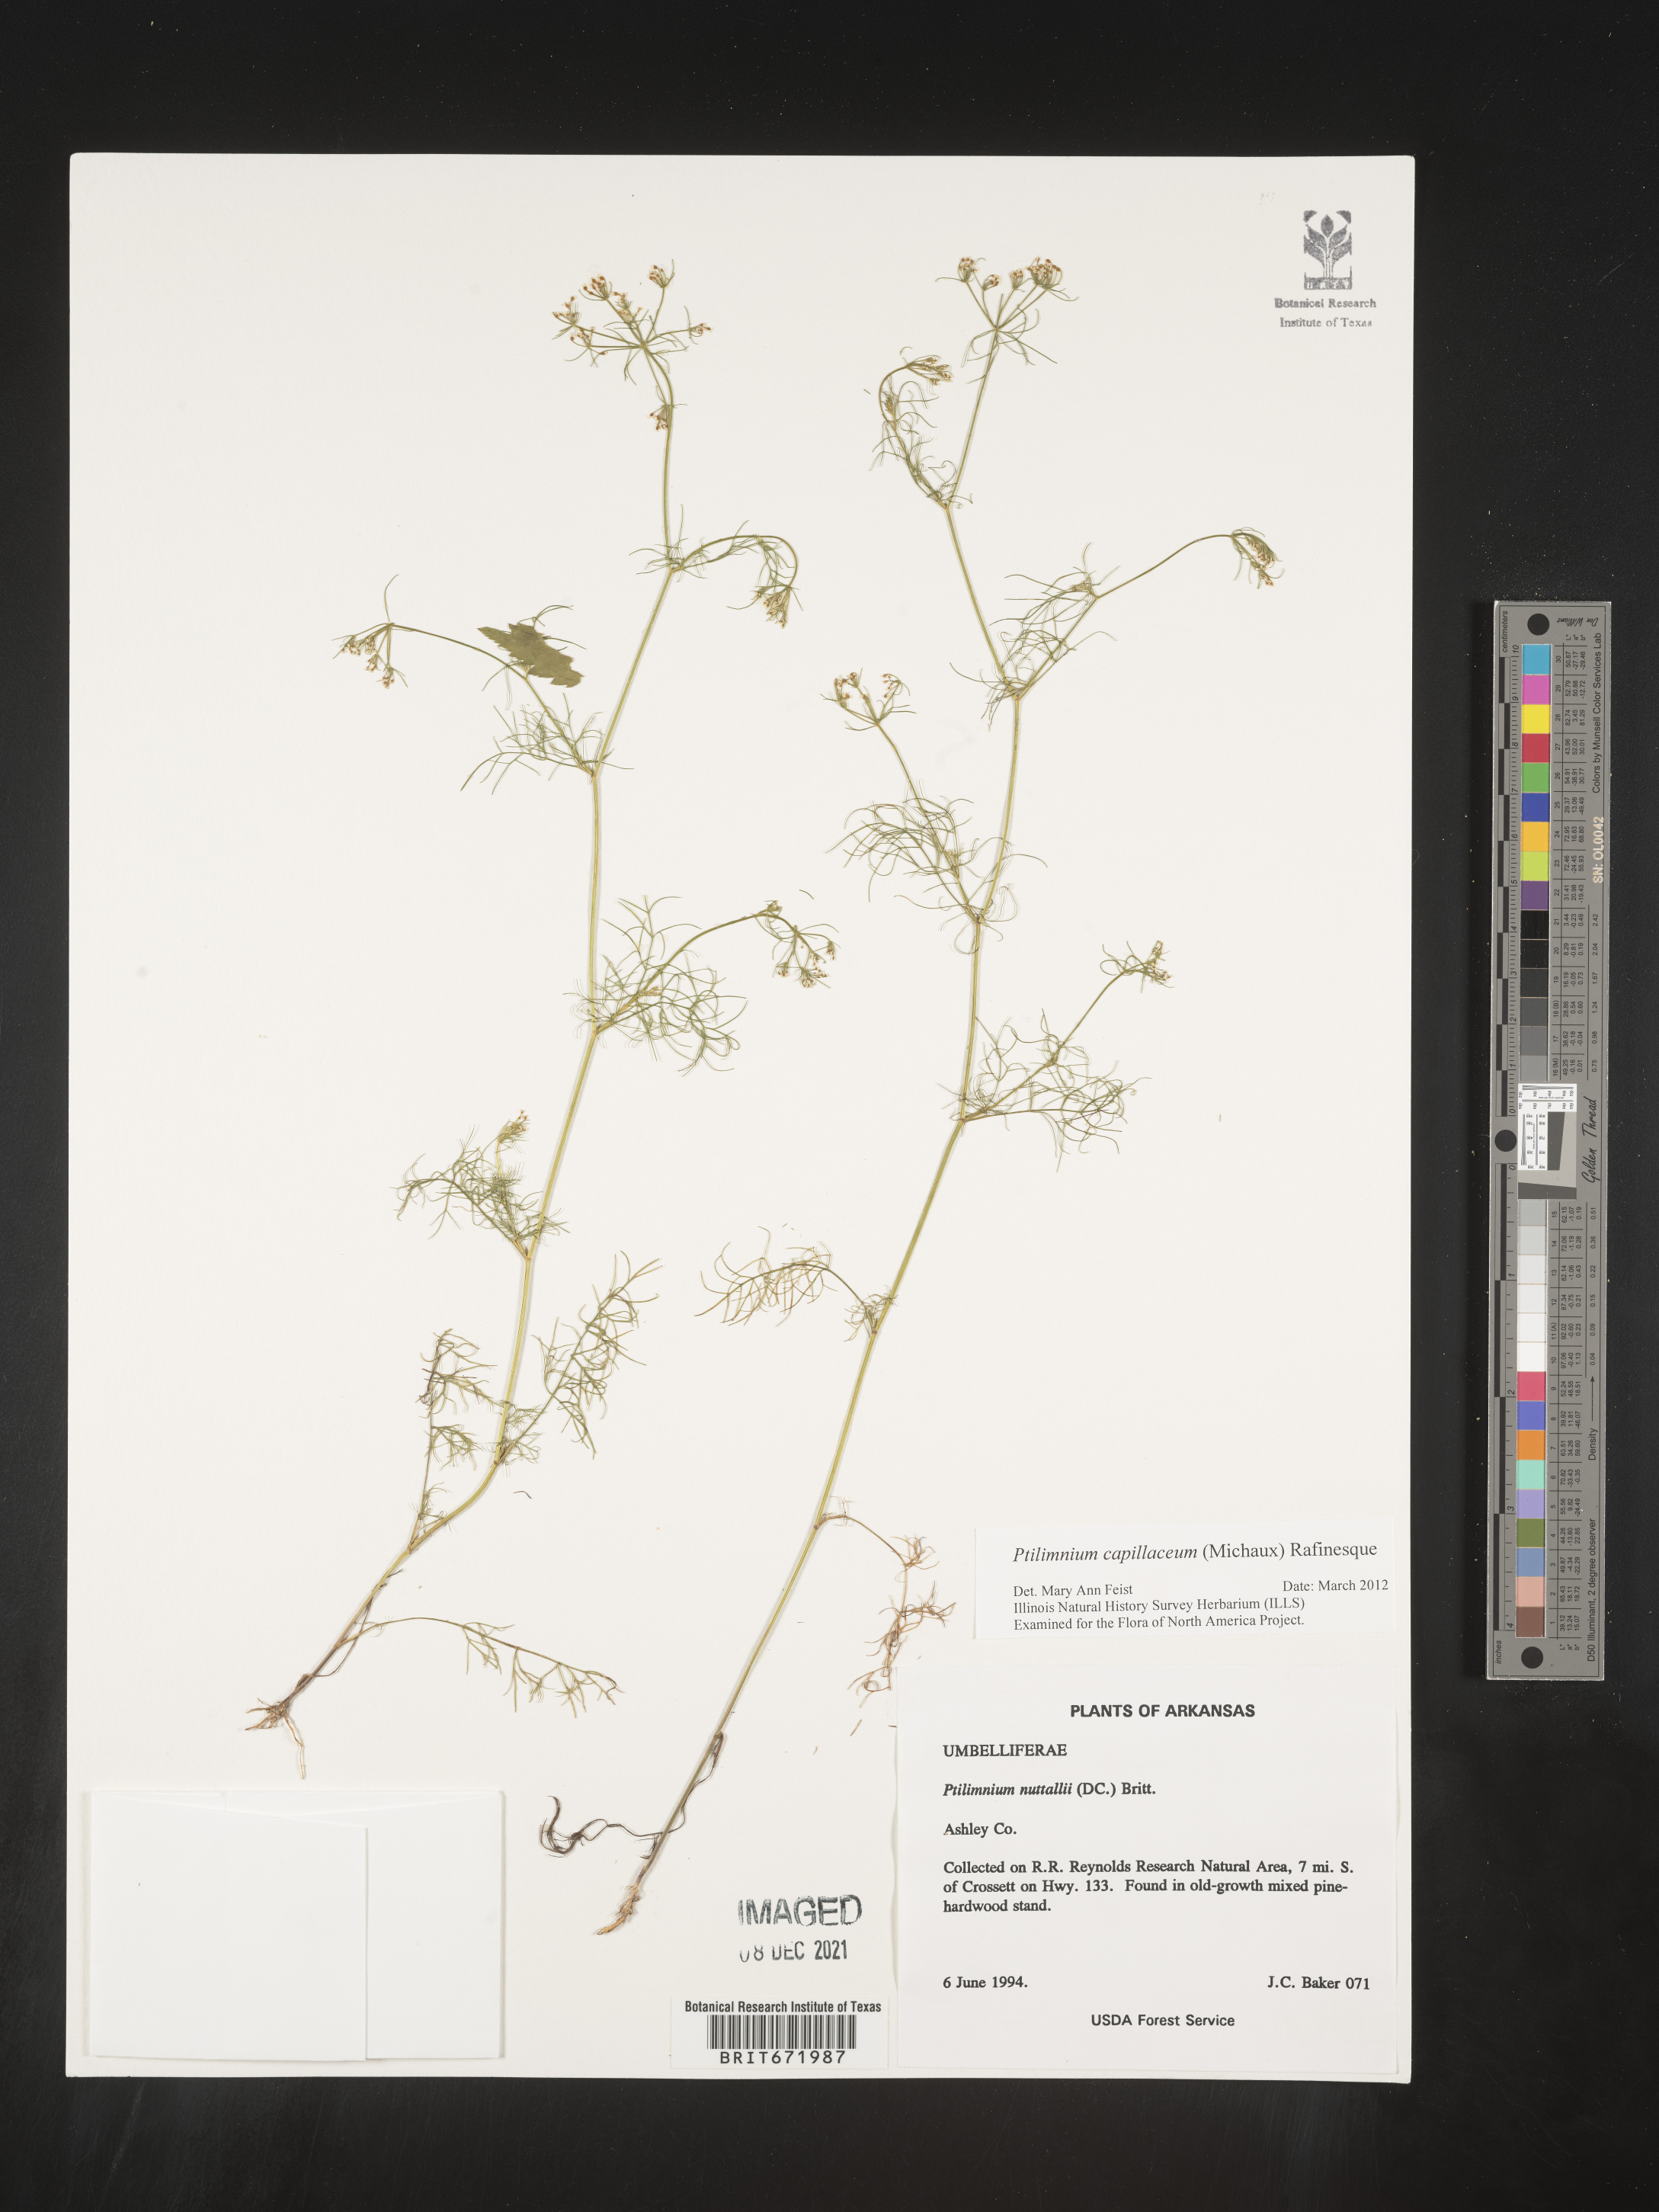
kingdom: Plantae
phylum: Tracheophyta
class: Magnoliopsida
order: Apiales
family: Apiaceae
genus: Ptilimnium
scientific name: Ptilimnium capillaceum
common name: Herbwilliam
